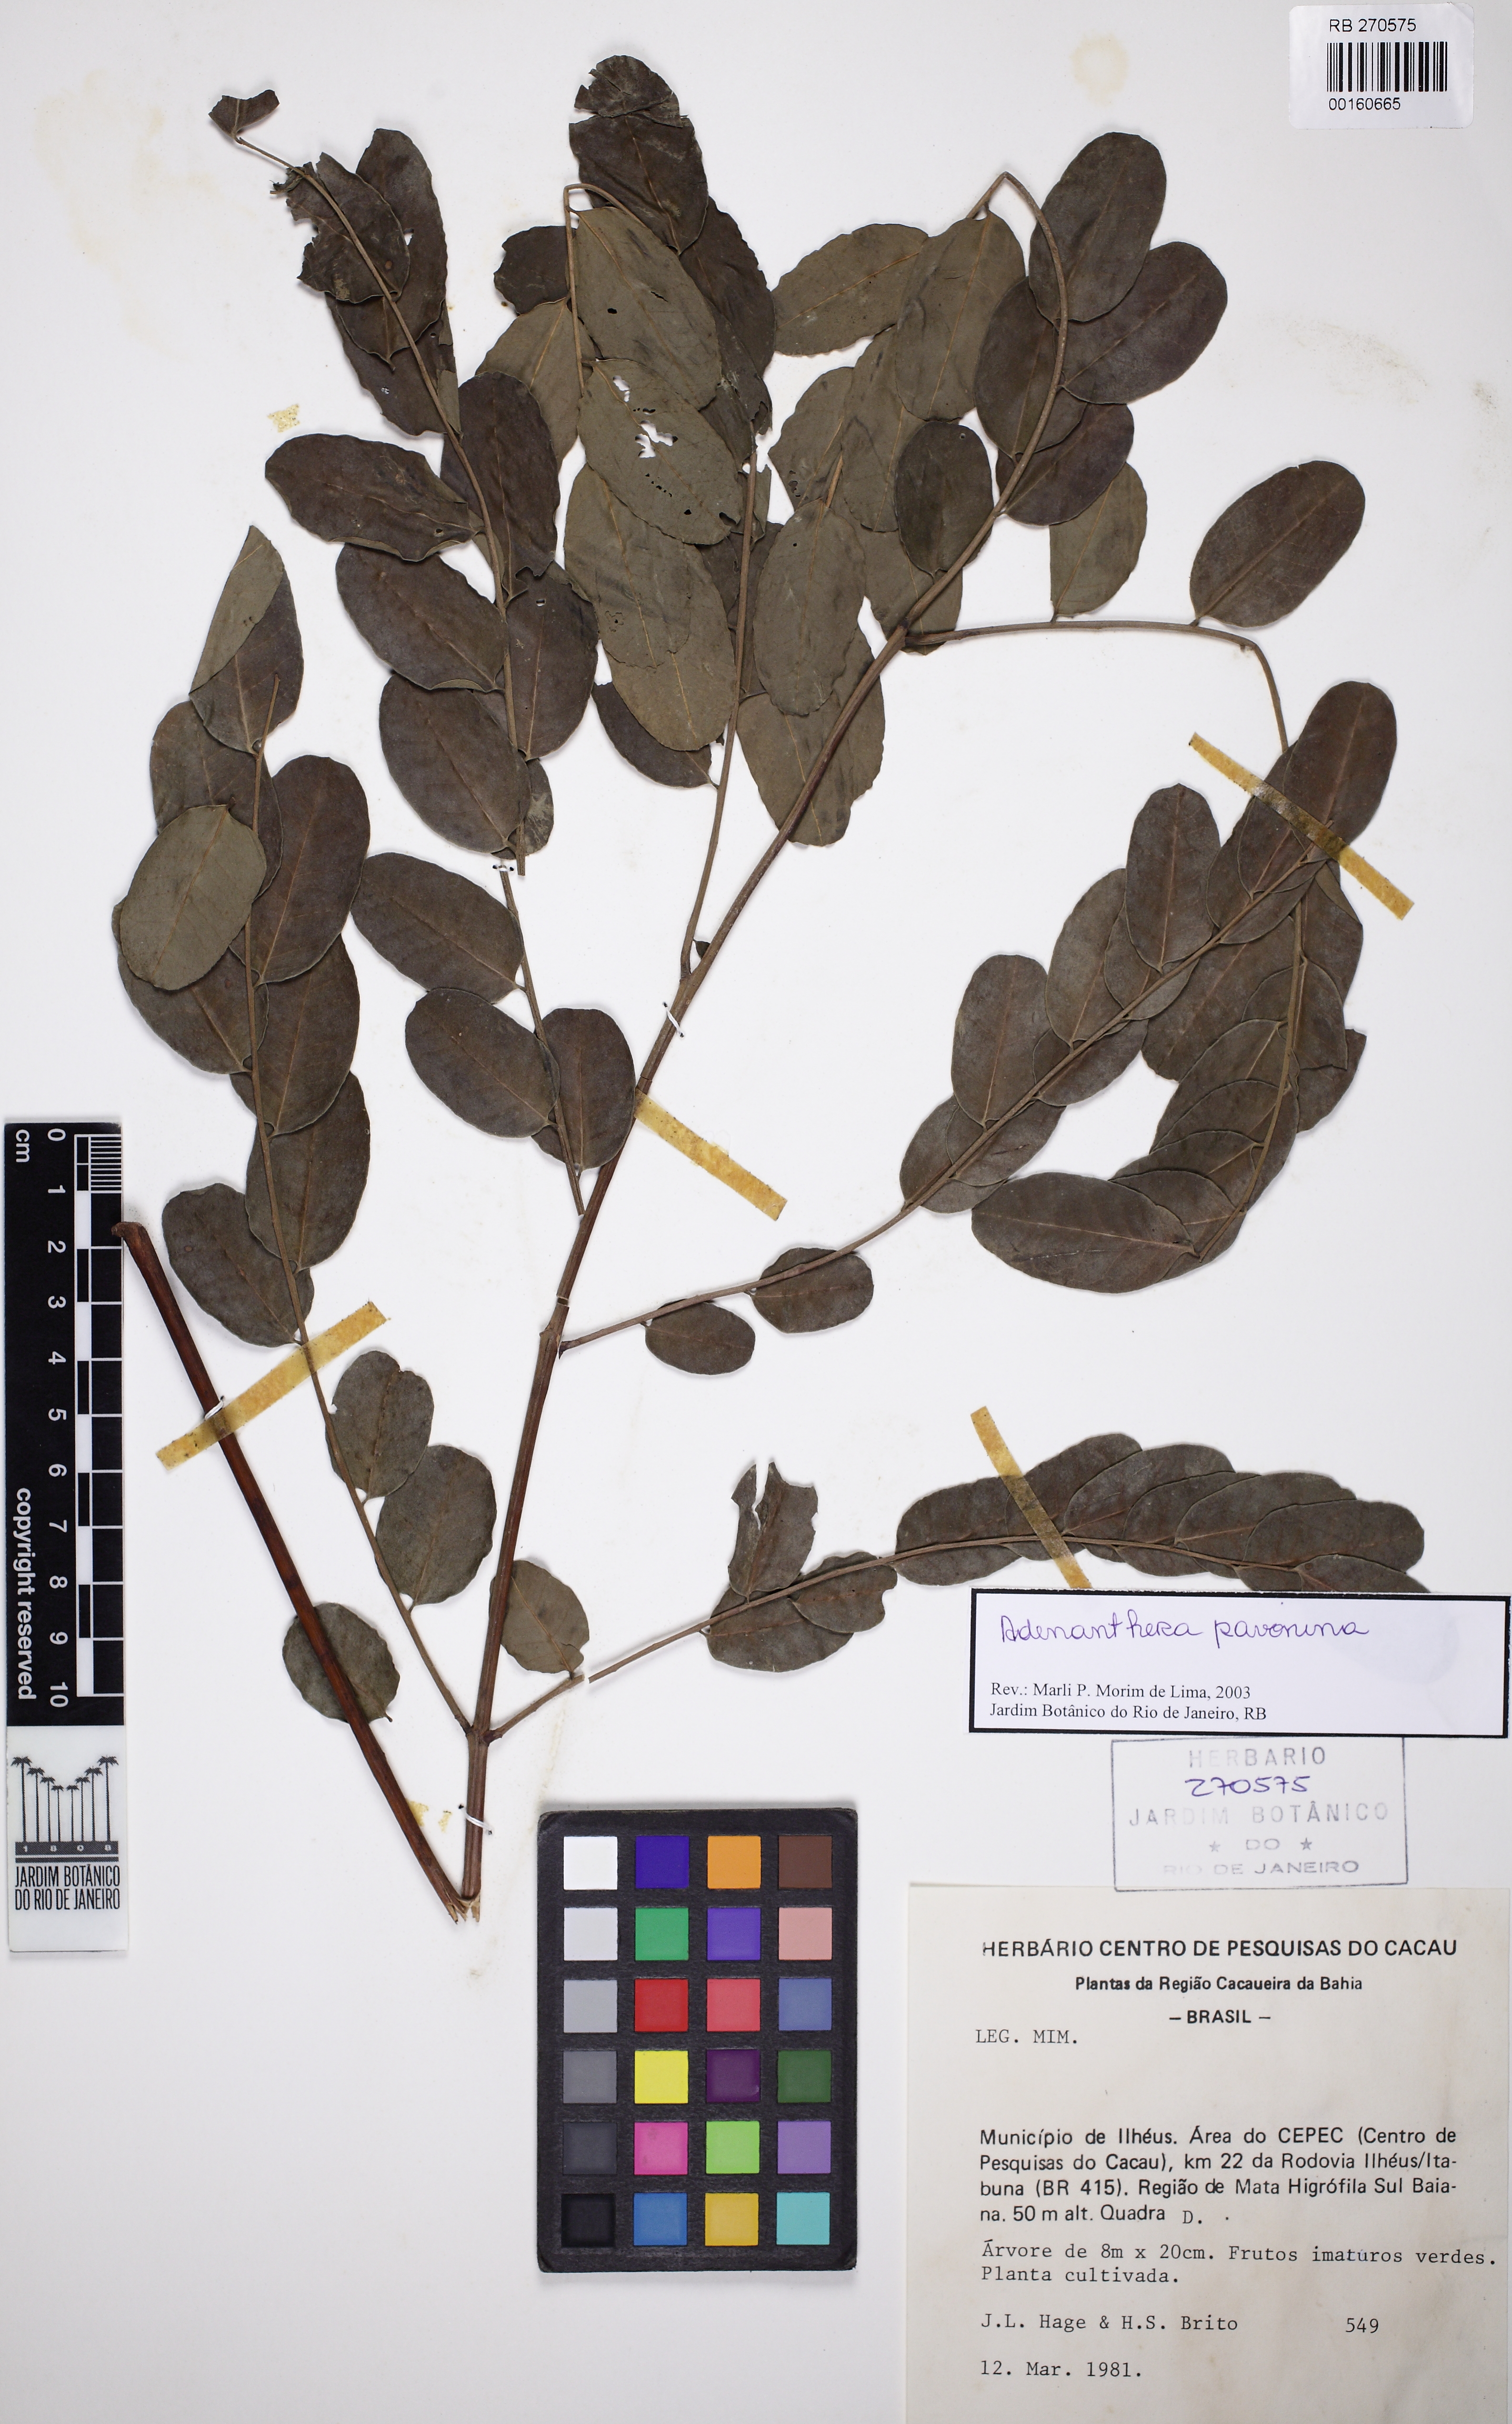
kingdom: Plantae
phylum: Tracheophyta
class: Magnoliopsida
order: Fabales
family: Fabaceae
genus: Adenanthera
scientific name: Adenanthera pavonina
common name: Red beadtree
